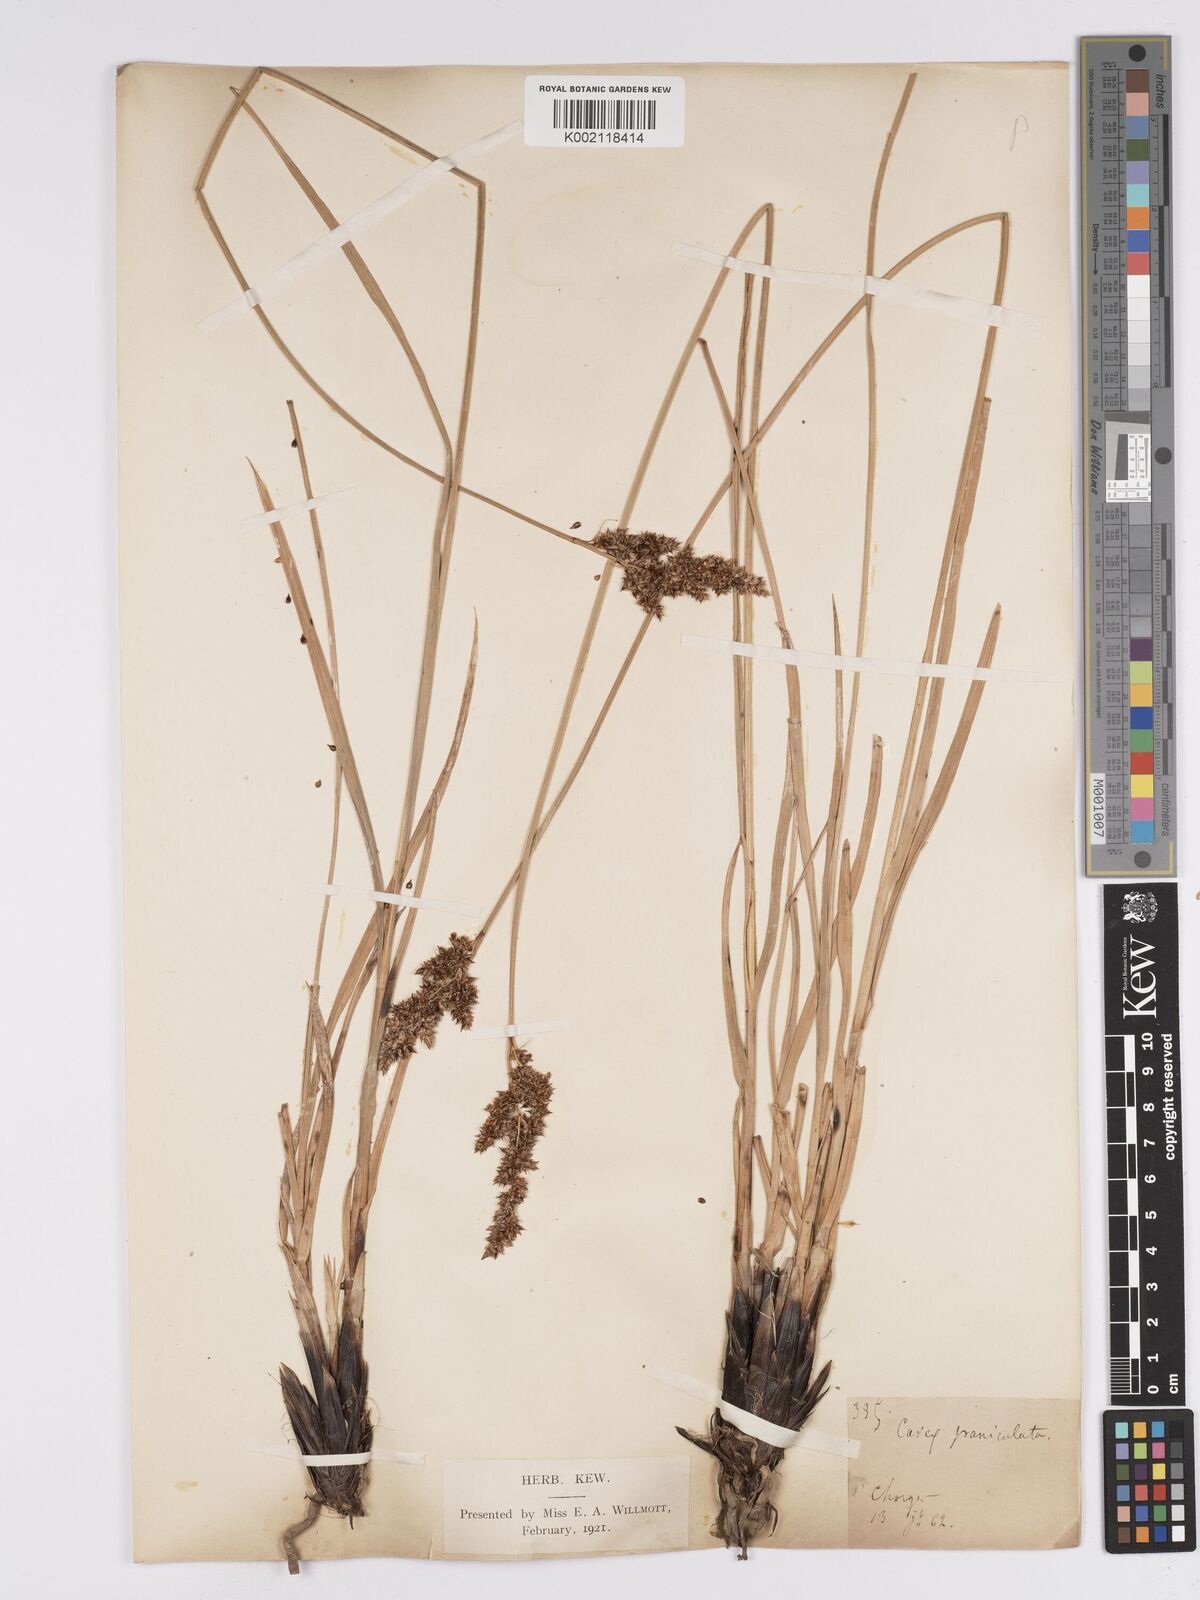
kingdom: Plantae
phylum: Tracheophyta
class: Liliopsida
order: Poales
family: Cyperaceae
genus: Carex
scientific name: Carex paniculata
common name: Greater tussock-sedge
